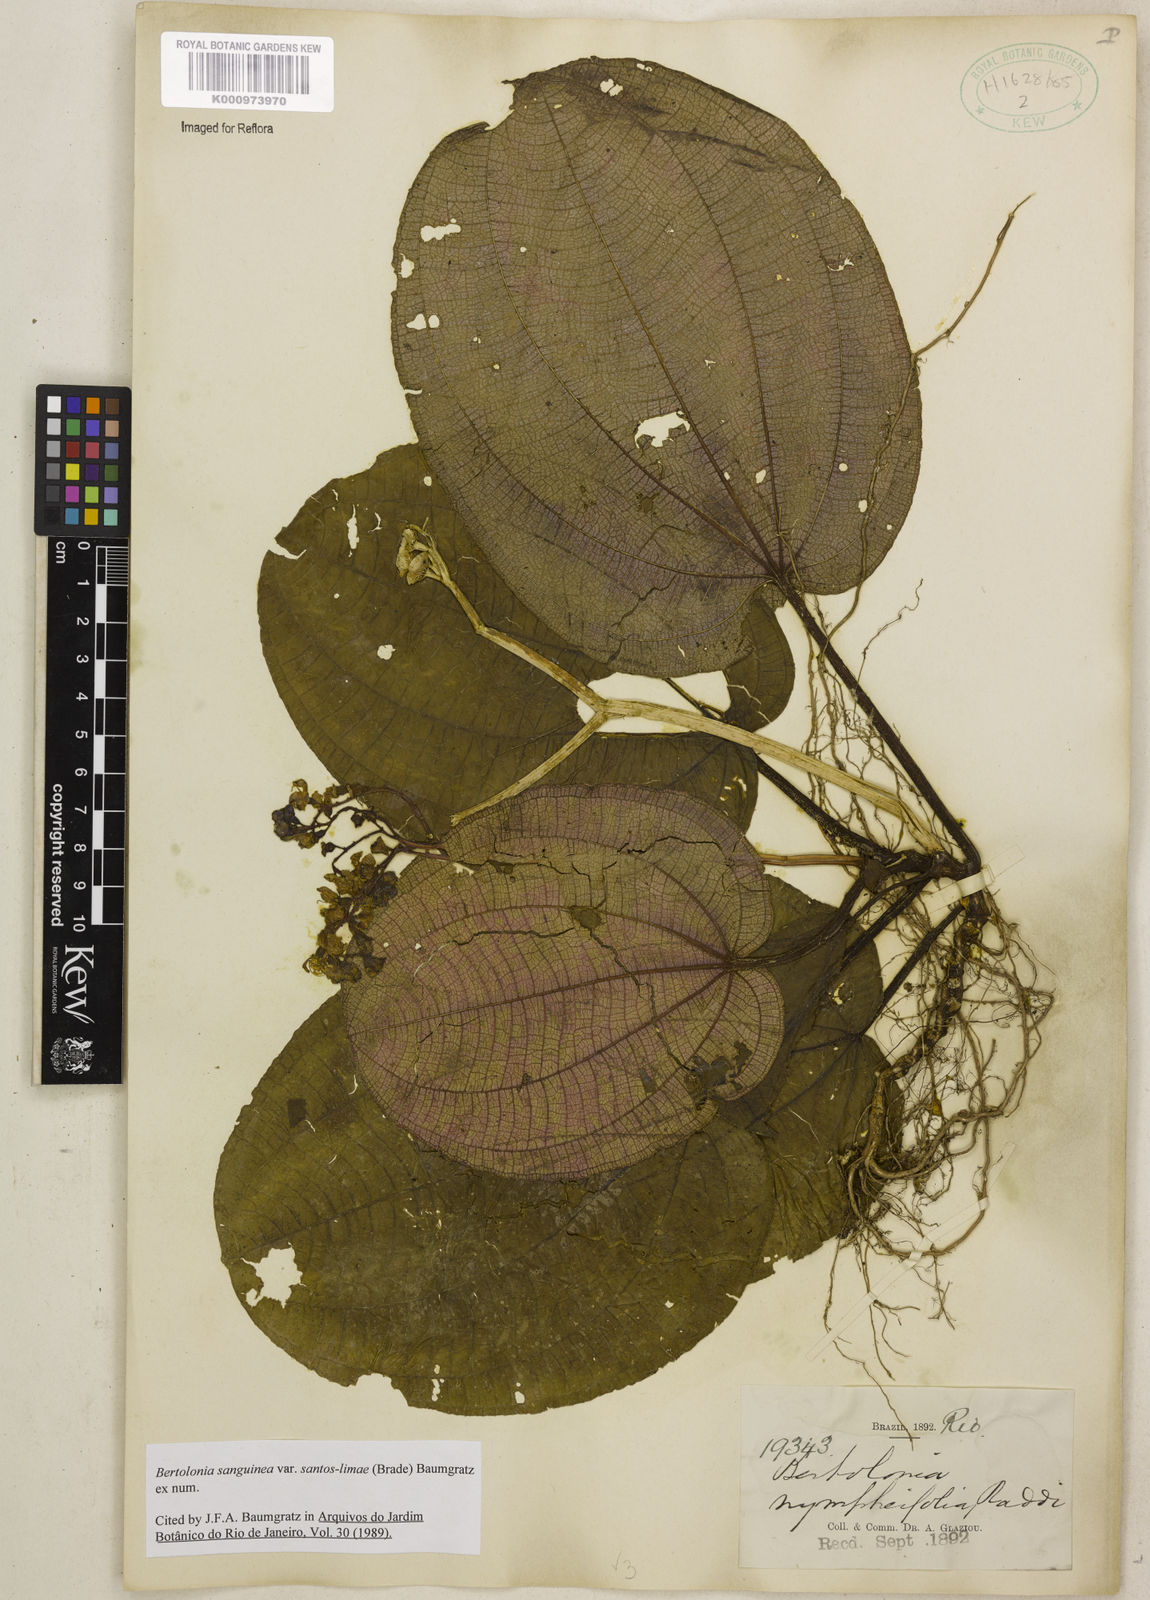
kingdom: Plantae
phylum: Tracheophyta
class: Magnoliopsida
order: Myrtales
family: Melastomataceae
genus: Bertolonia
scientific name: Bertolonia sanguinea
